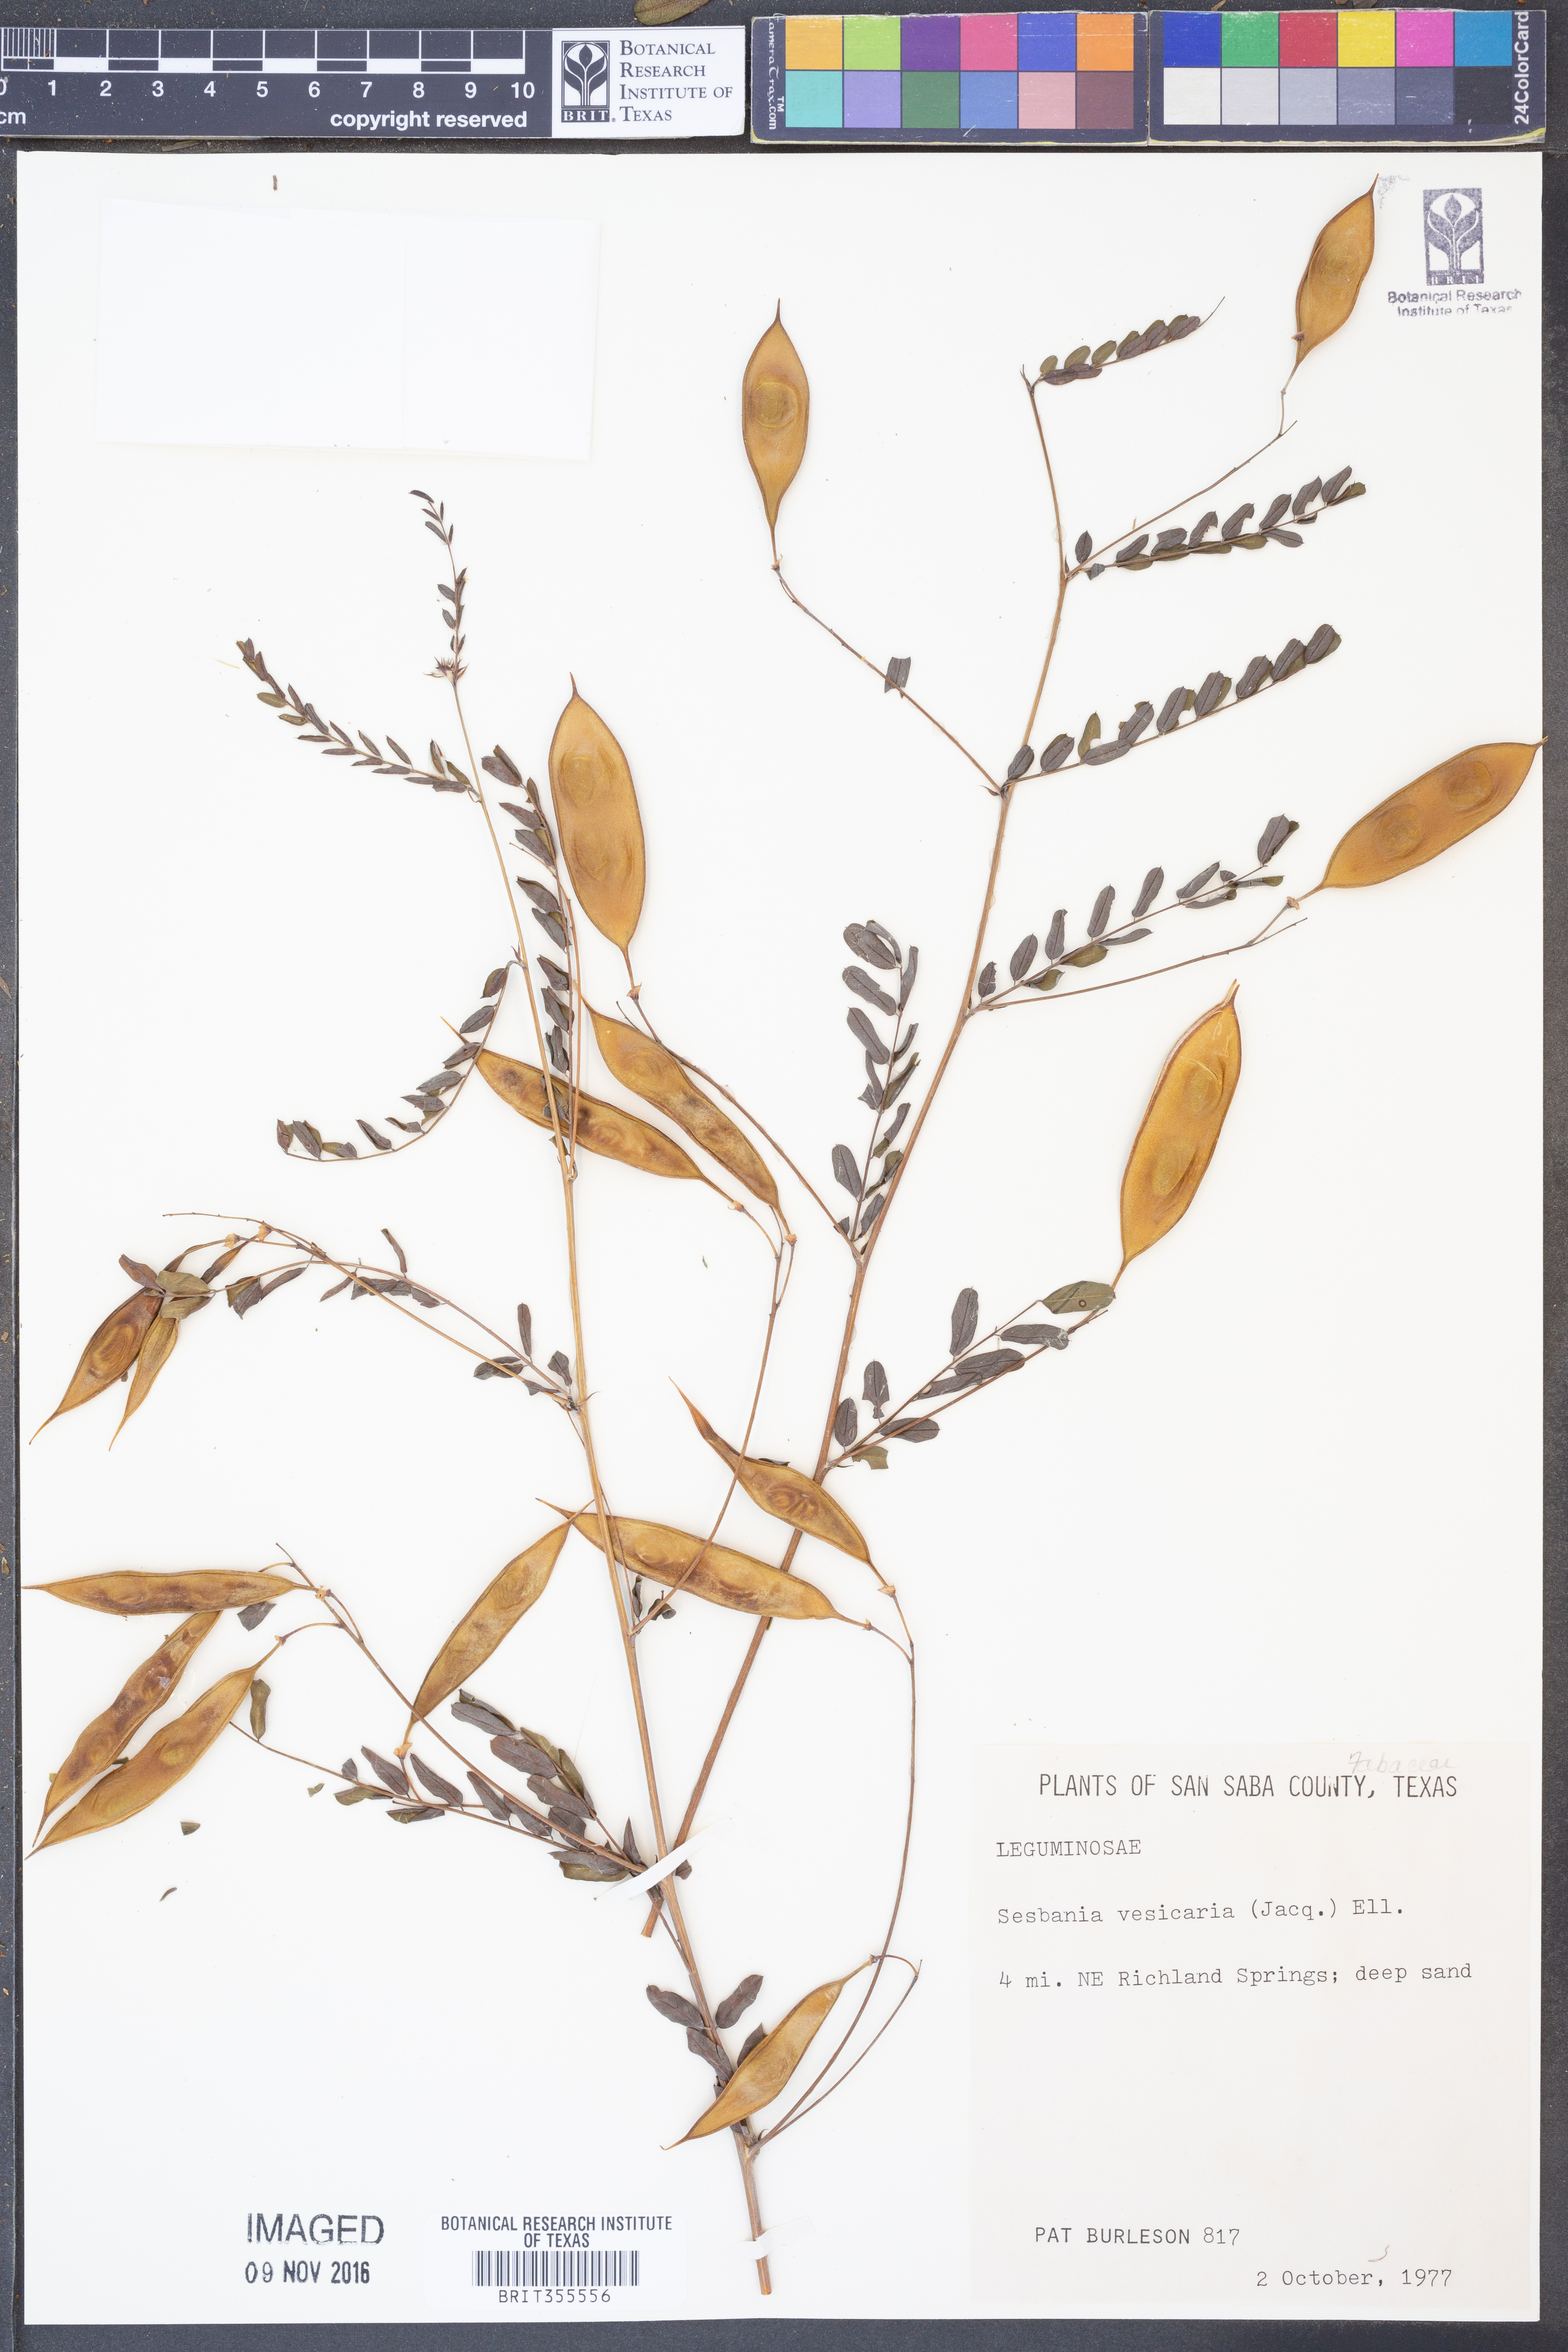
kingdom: Plantae
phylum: Tracheophyta
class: Magnoliopsida
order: Fabales
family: Fabaceae
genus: Sesbania
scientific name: Sesbania vesicaria
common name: Bagpod
